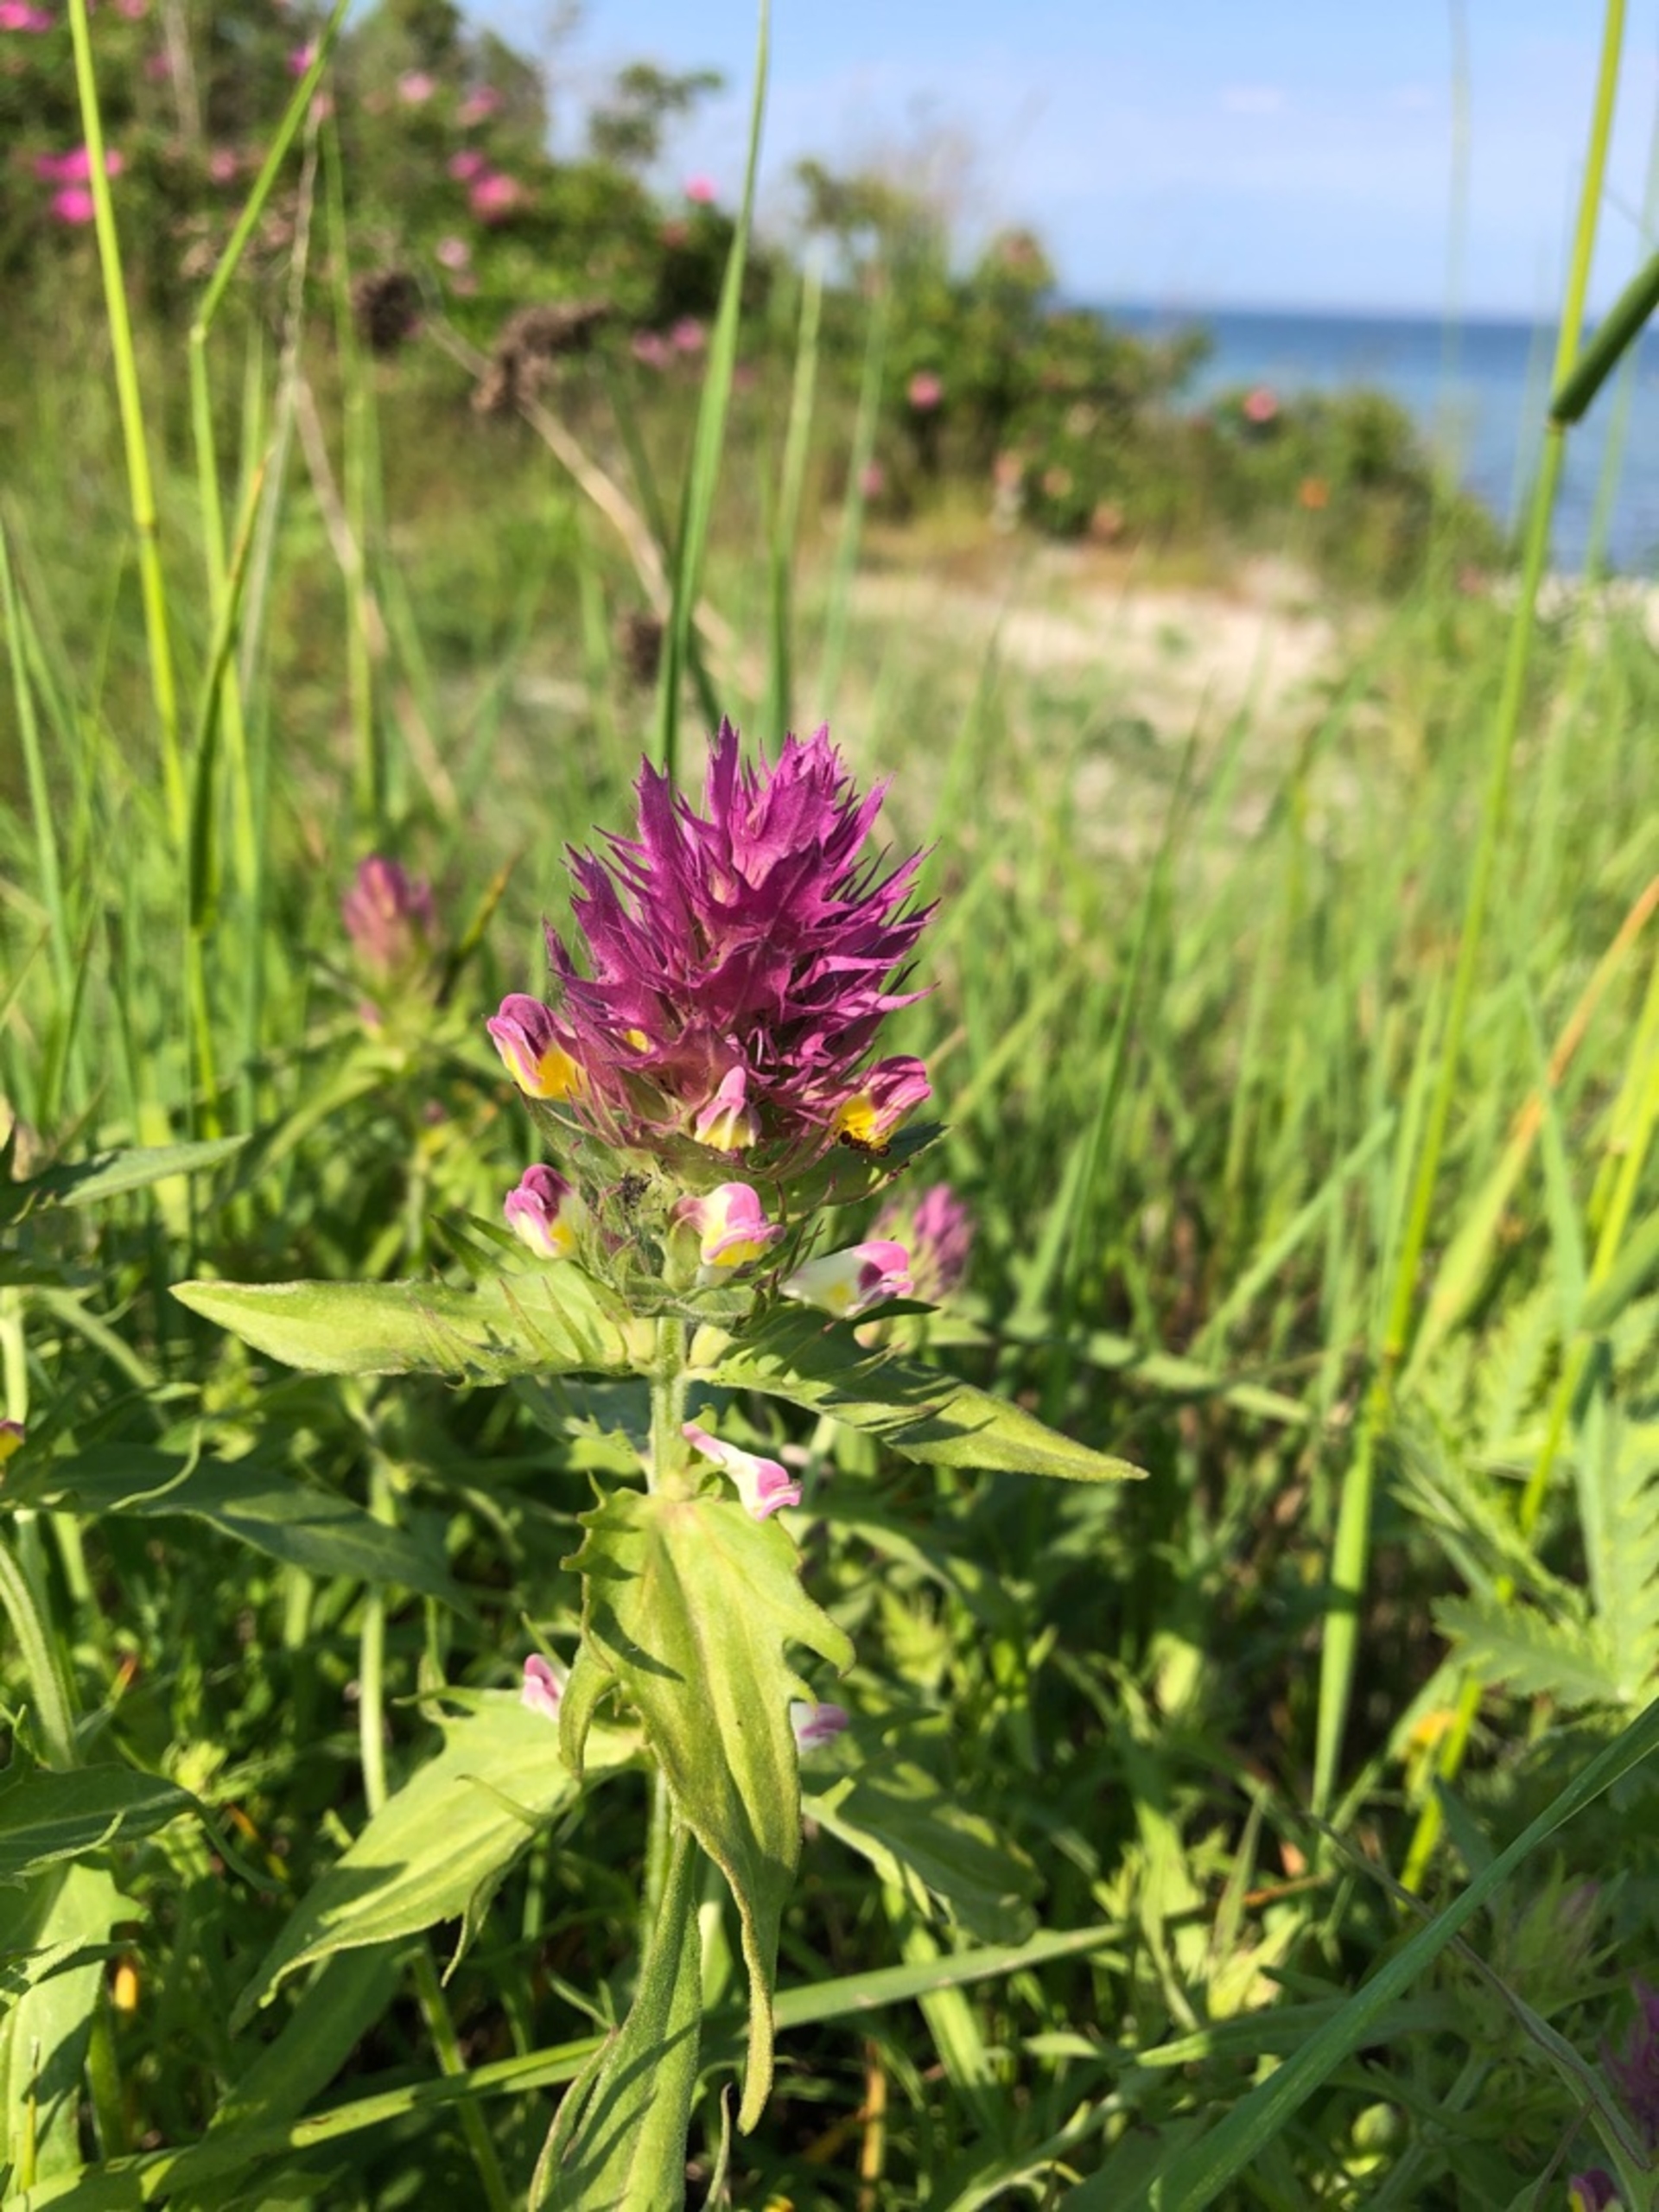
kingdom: Plantae
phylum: Tracheophyta
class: Magnoliopsida
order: Lamiales
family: Orobanchaceae
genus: Melampyrum
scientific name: Melampyrum arvense
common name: Ager-kohvede
